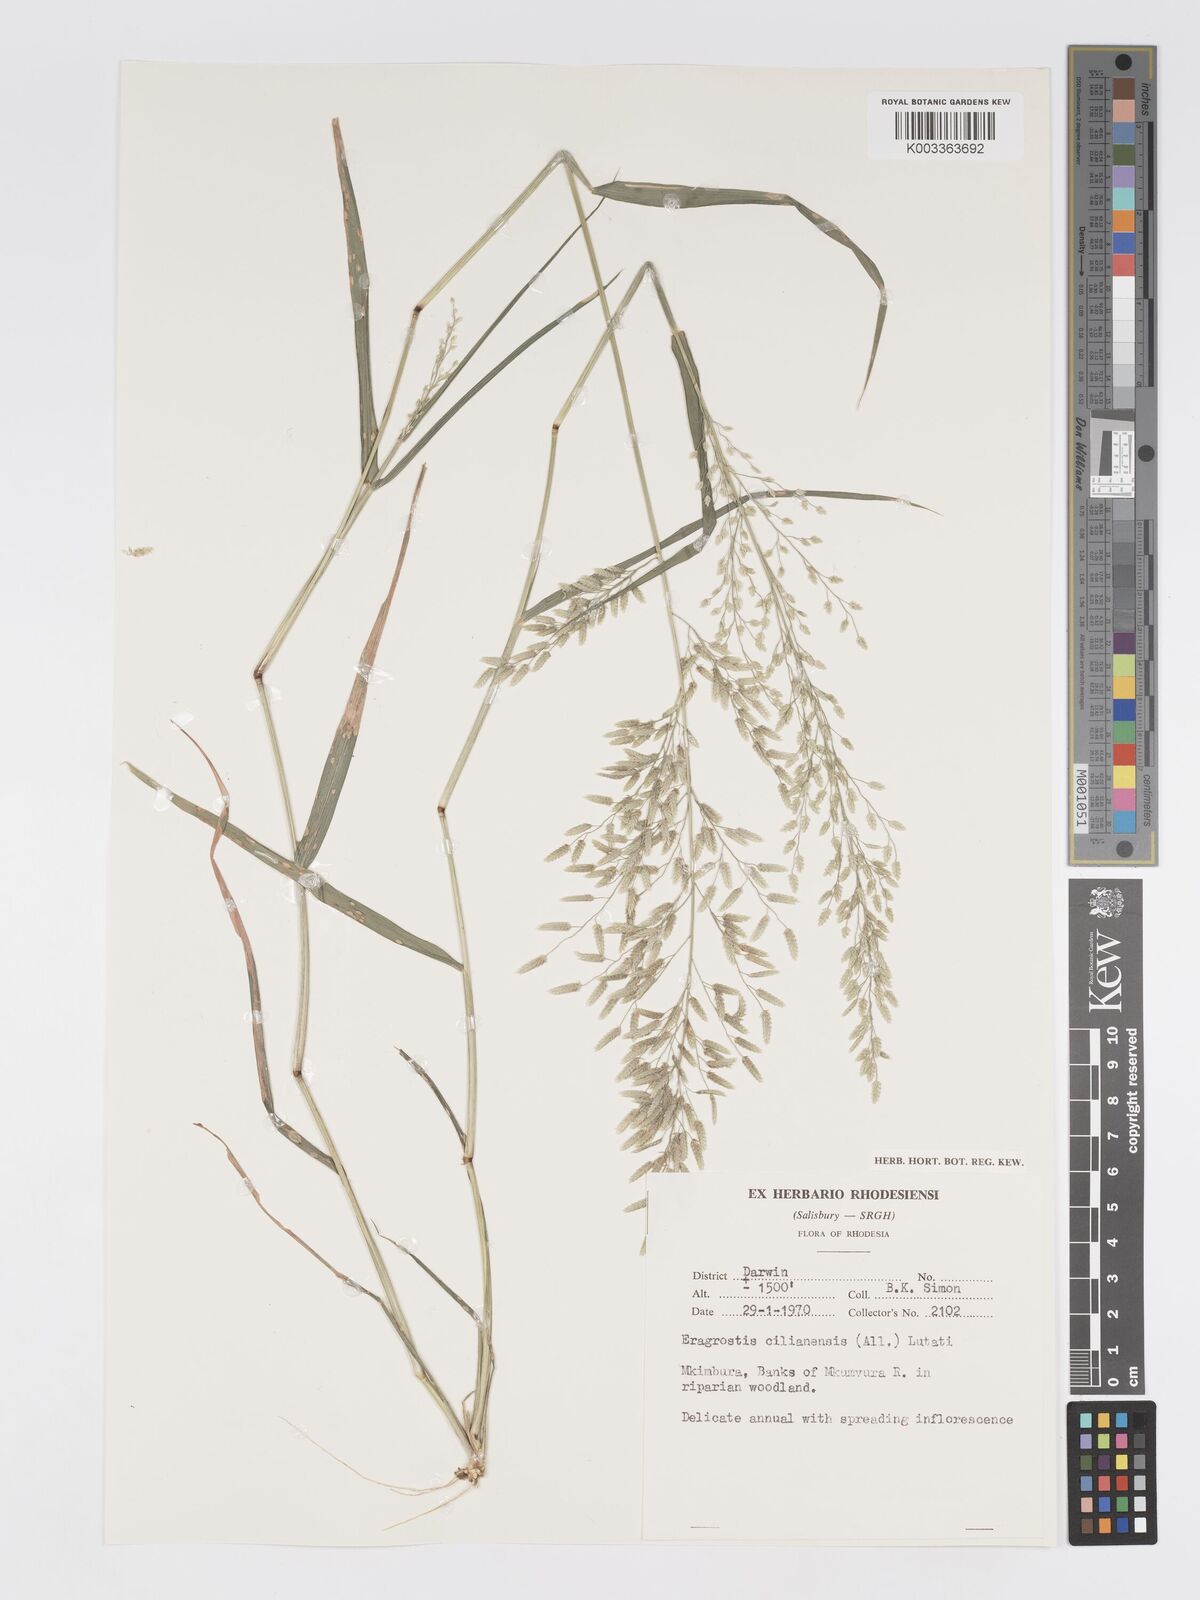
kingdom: Plantae
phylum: Tracheophyta
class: Liliopsida
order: Poales
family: Poaceae
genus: Eragrostis
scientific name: Eragrostis cilianensis
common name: Stinkgrass
